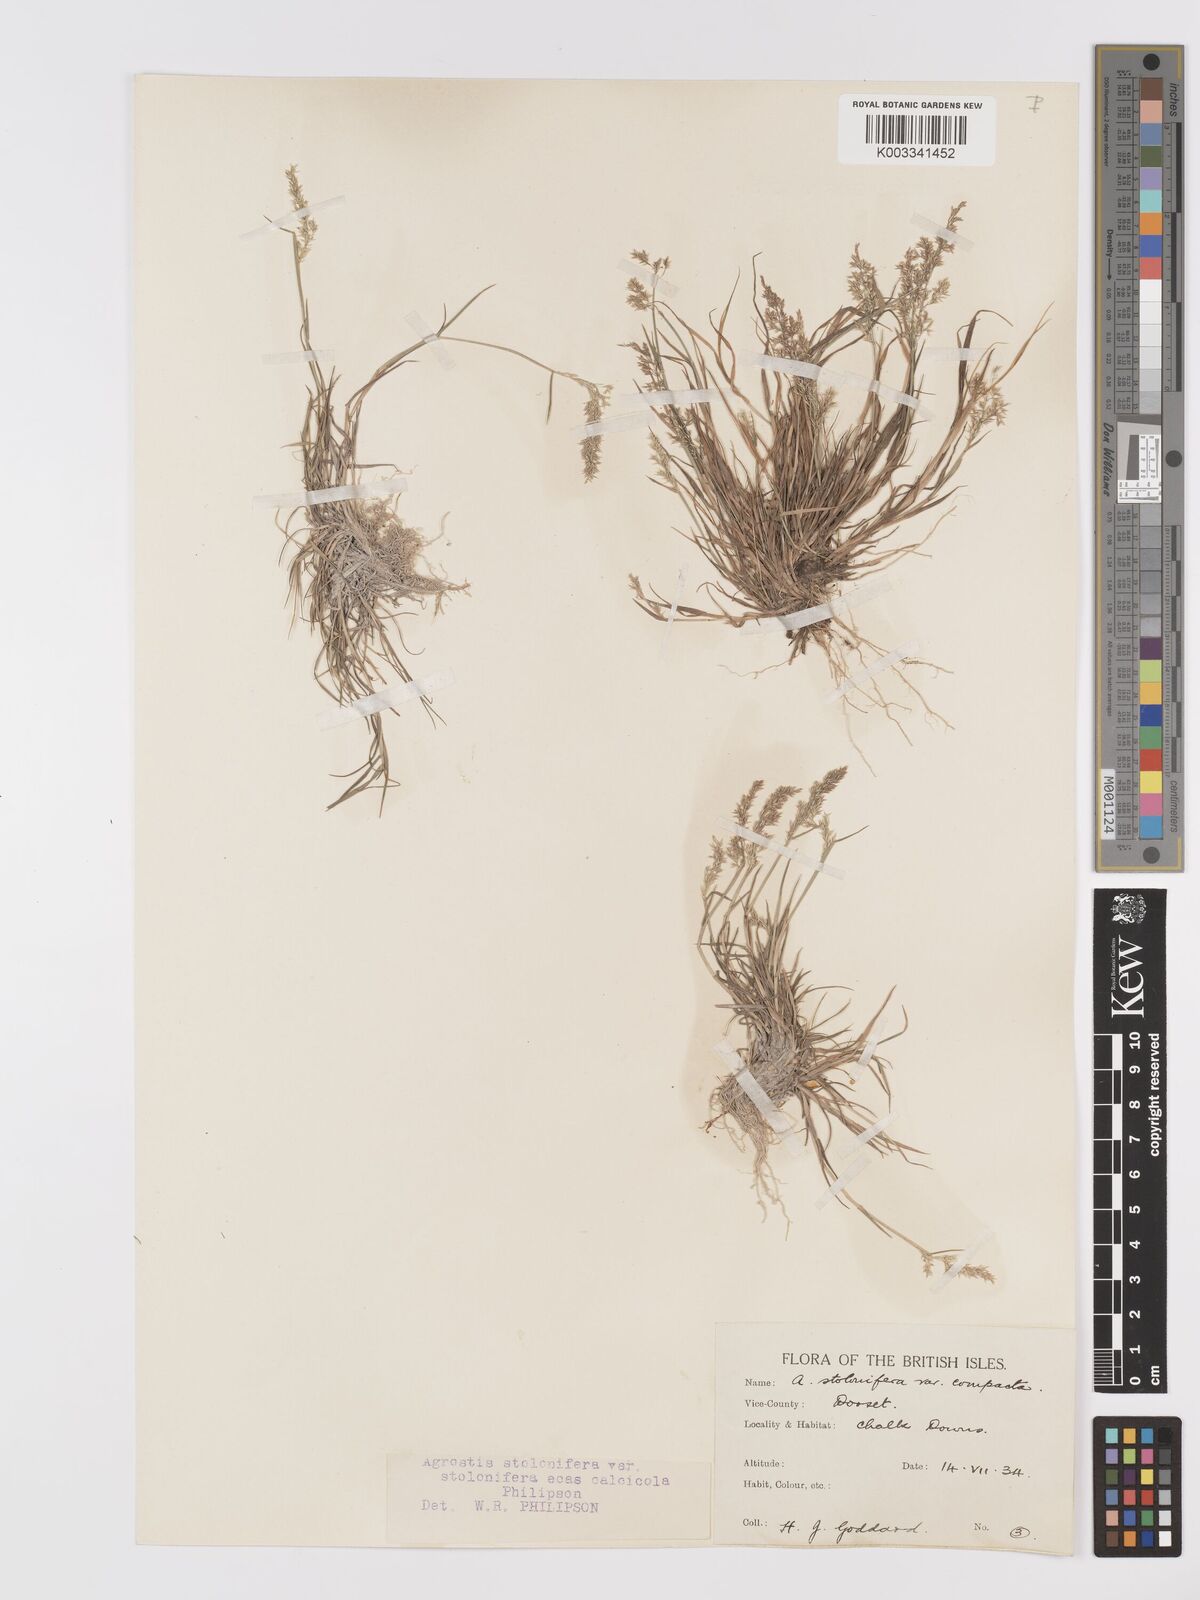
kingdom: Plantae
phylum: Tracheophyta
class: Liliopsida
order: Poales
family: Poaceae
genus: Agrostis
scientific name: Agrostis stolonifera
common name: Creeping bentgrass
